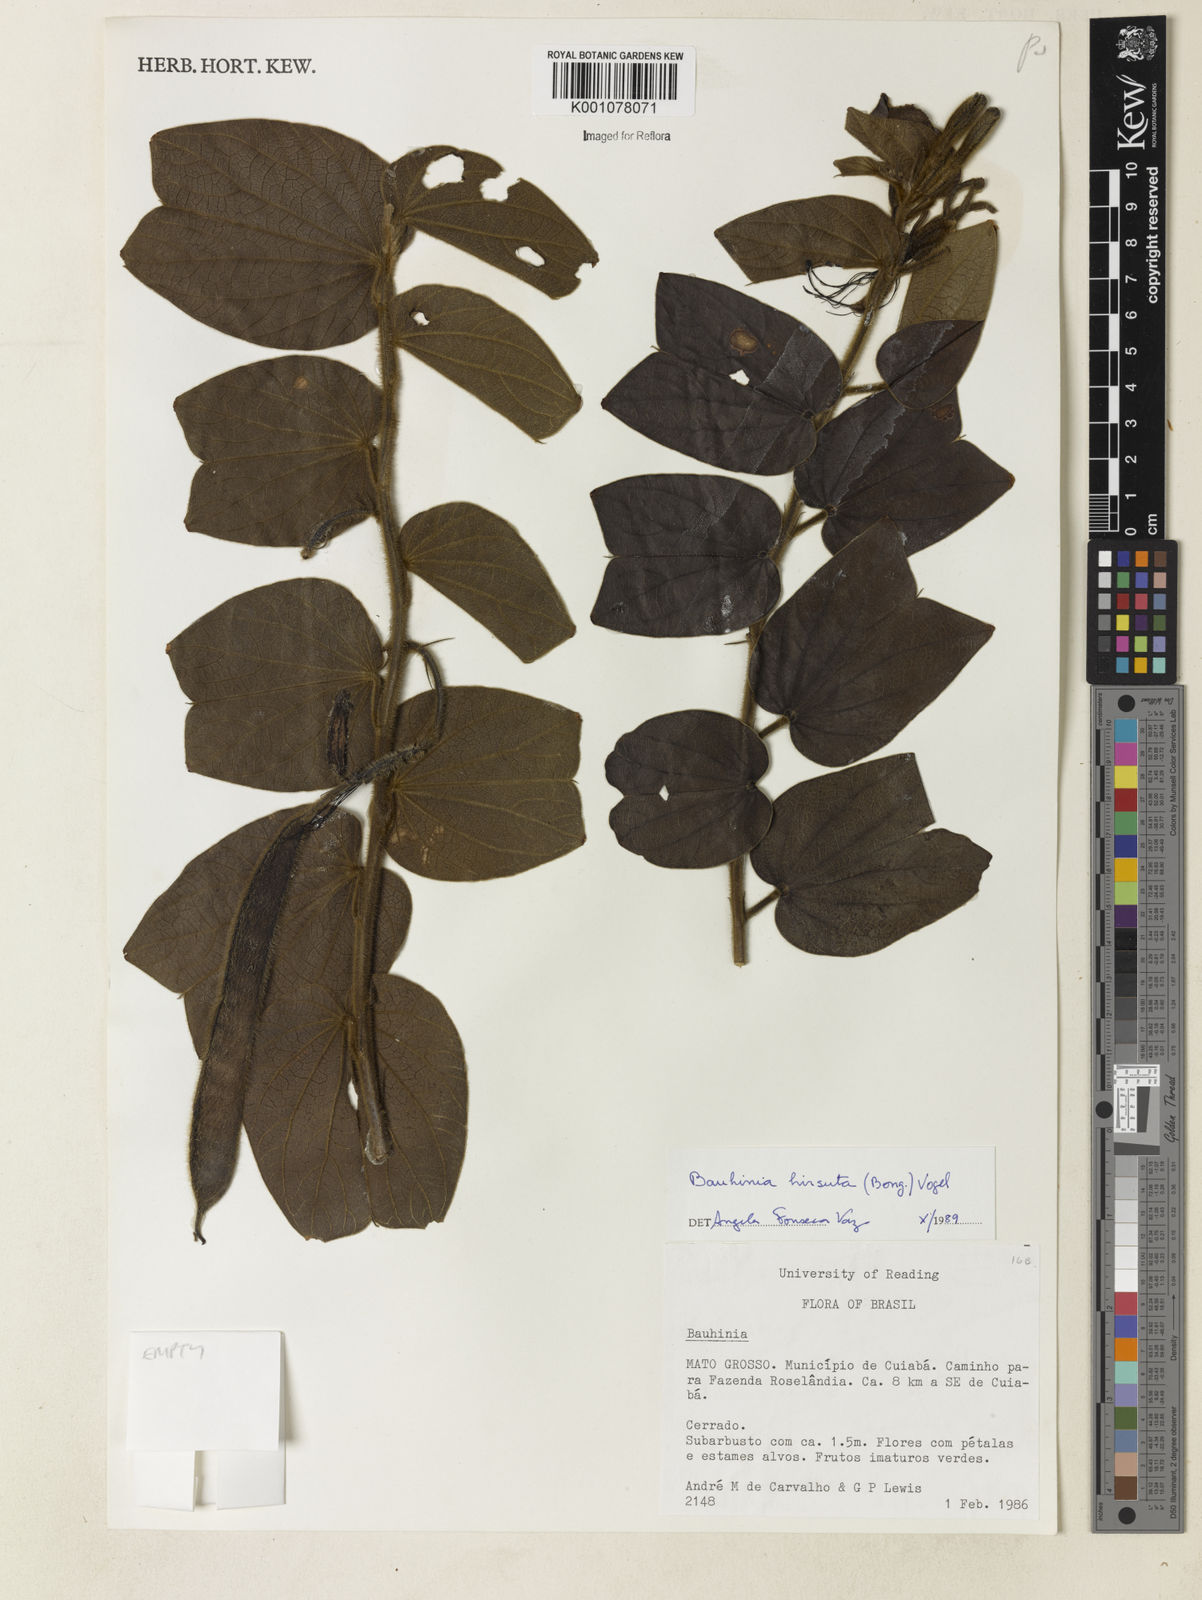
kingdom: Plantae
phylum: Tracheophyta
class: Magnoliopsida
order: Fabales
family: Fabaceae
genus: Bauhinia
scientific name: Bauhinia vespertilio
